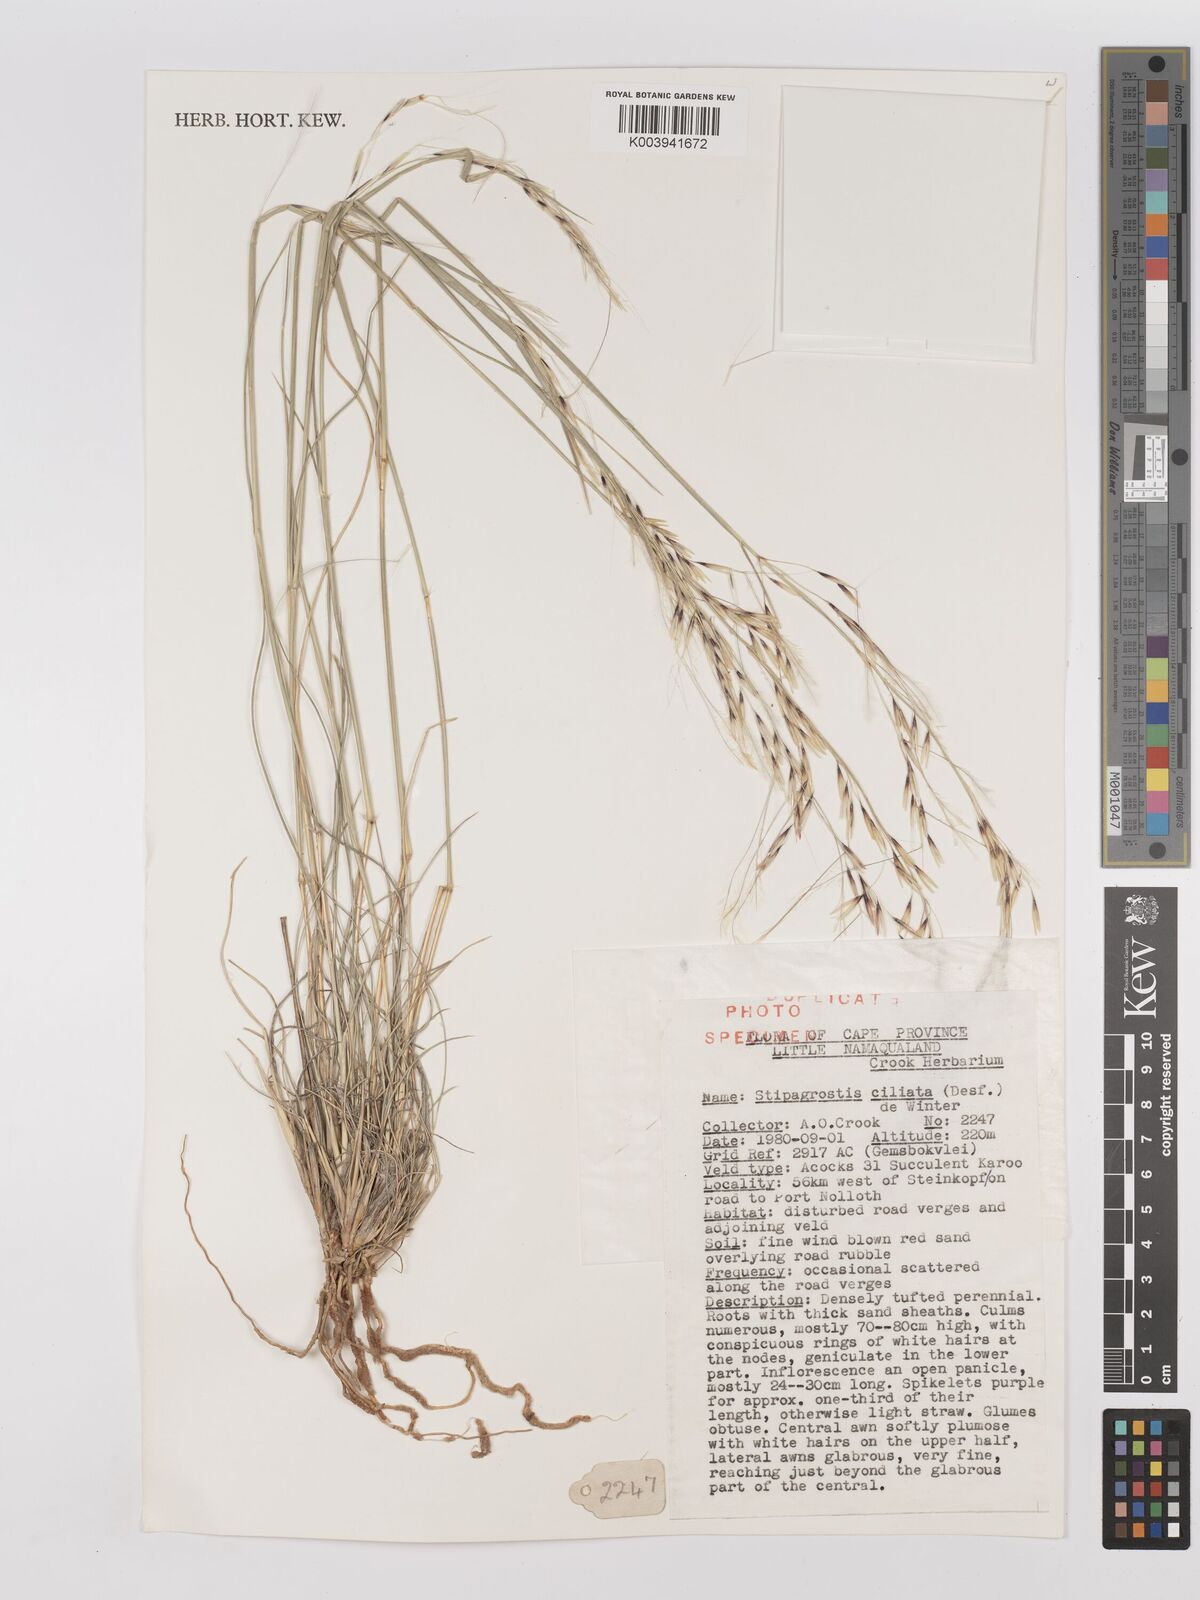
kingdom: Plantae
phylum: Tracheophyta
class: Liliopsida
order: Poales
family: Poaceae
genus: Stipagrostis
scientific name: Stipagrostis ciliata
